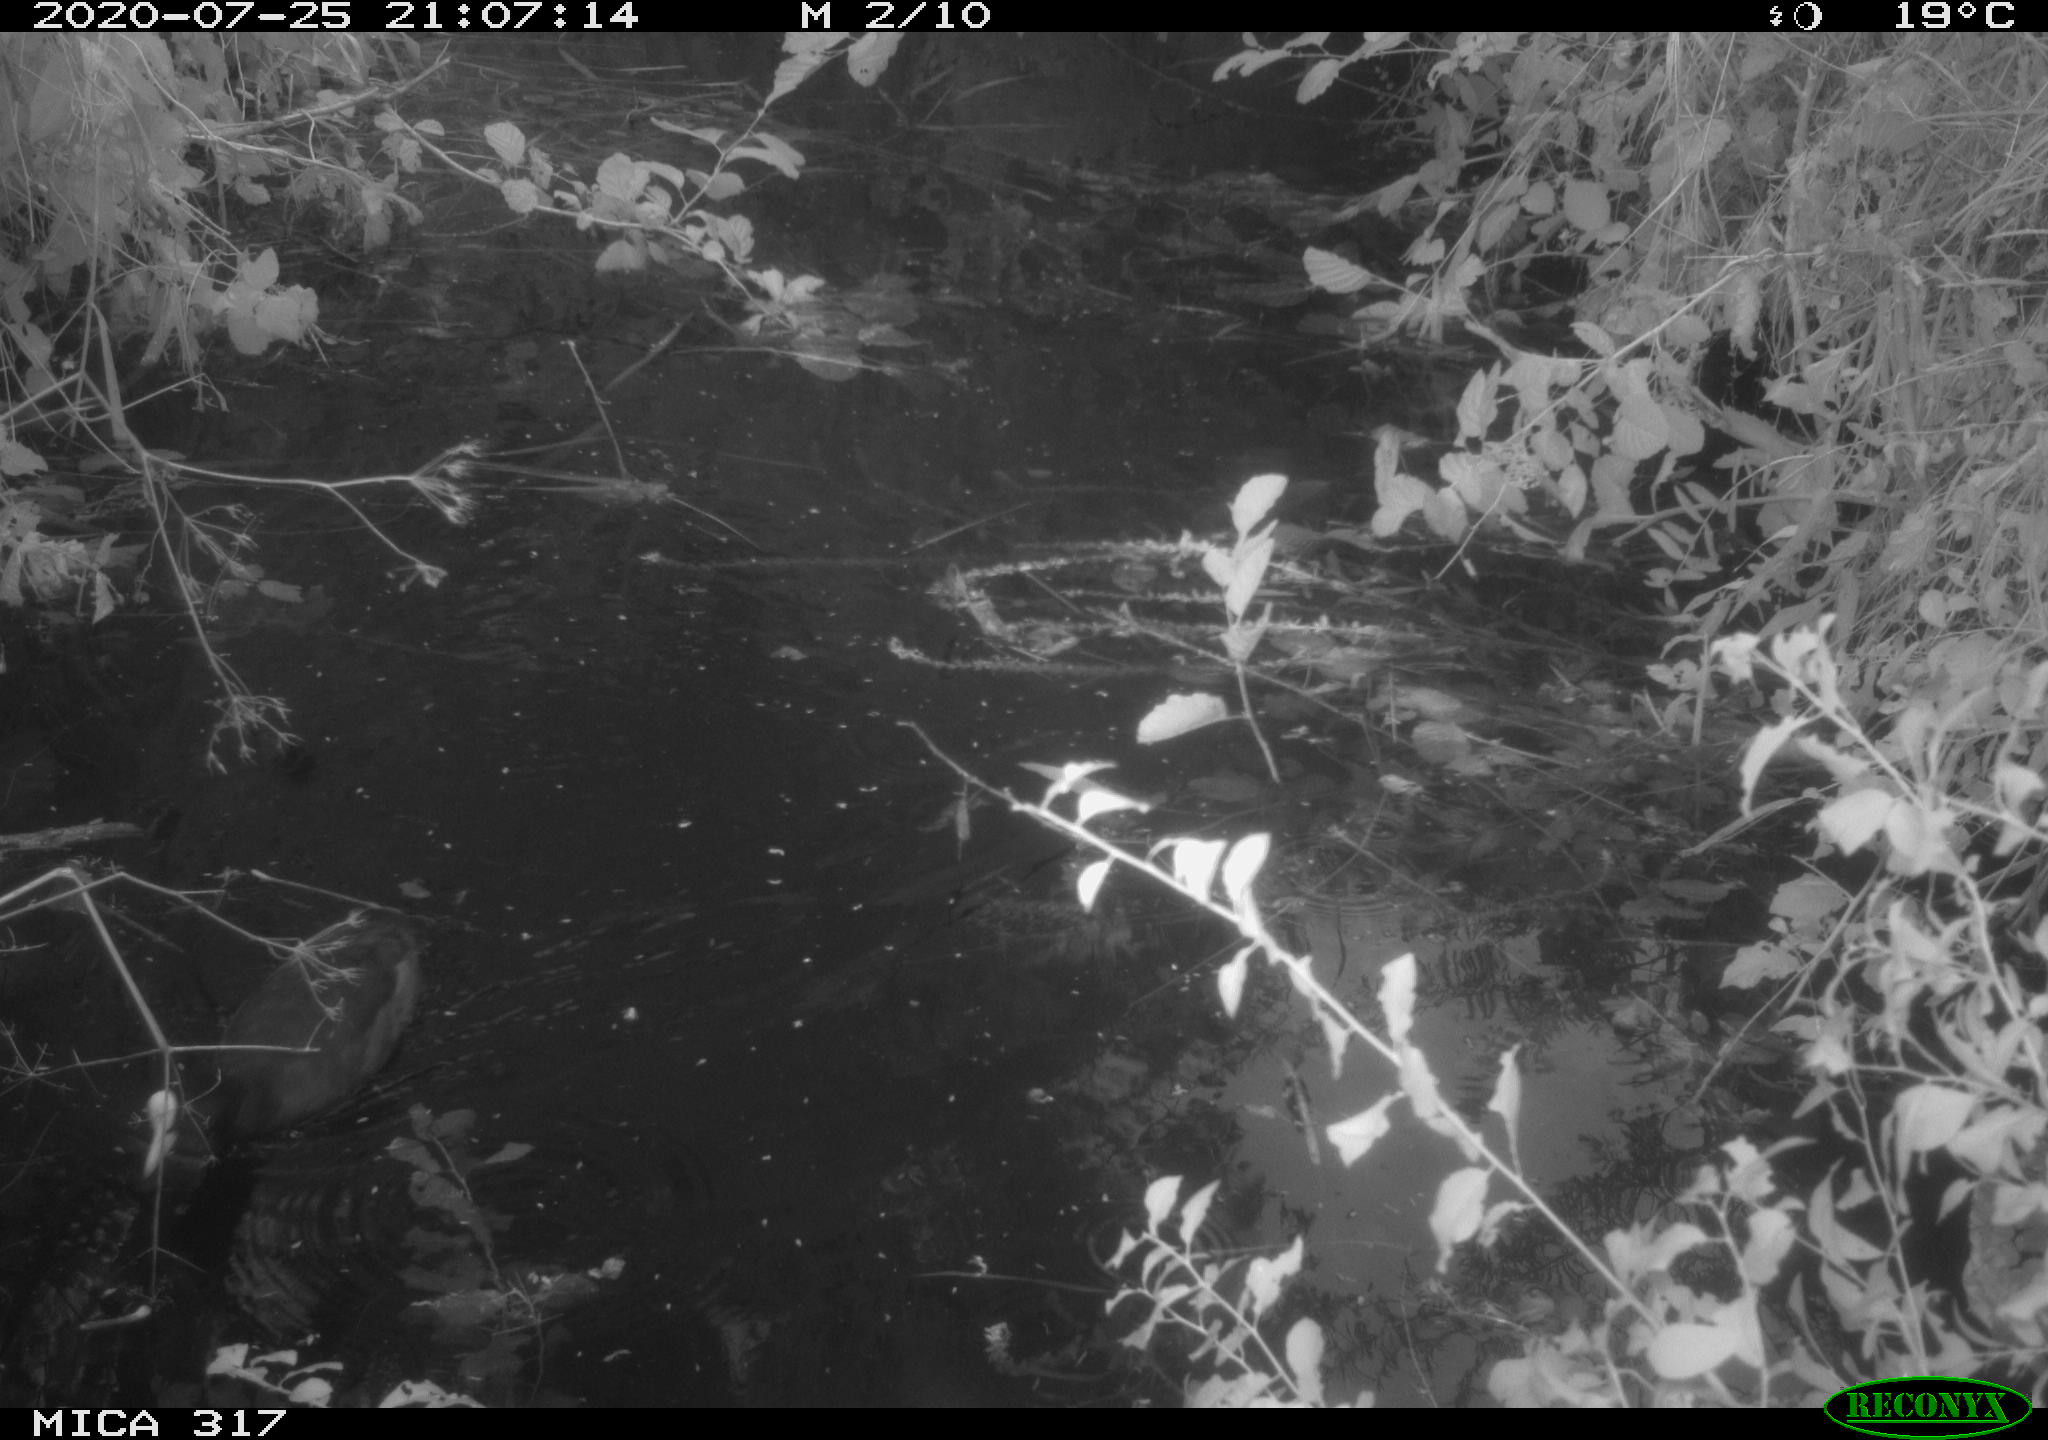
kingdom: Animalia
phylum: Chordata
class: Aves
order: Gruiformes
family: Rallidae
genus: Gallinula
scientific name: Gallinula chloropus
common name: Common moorhen
